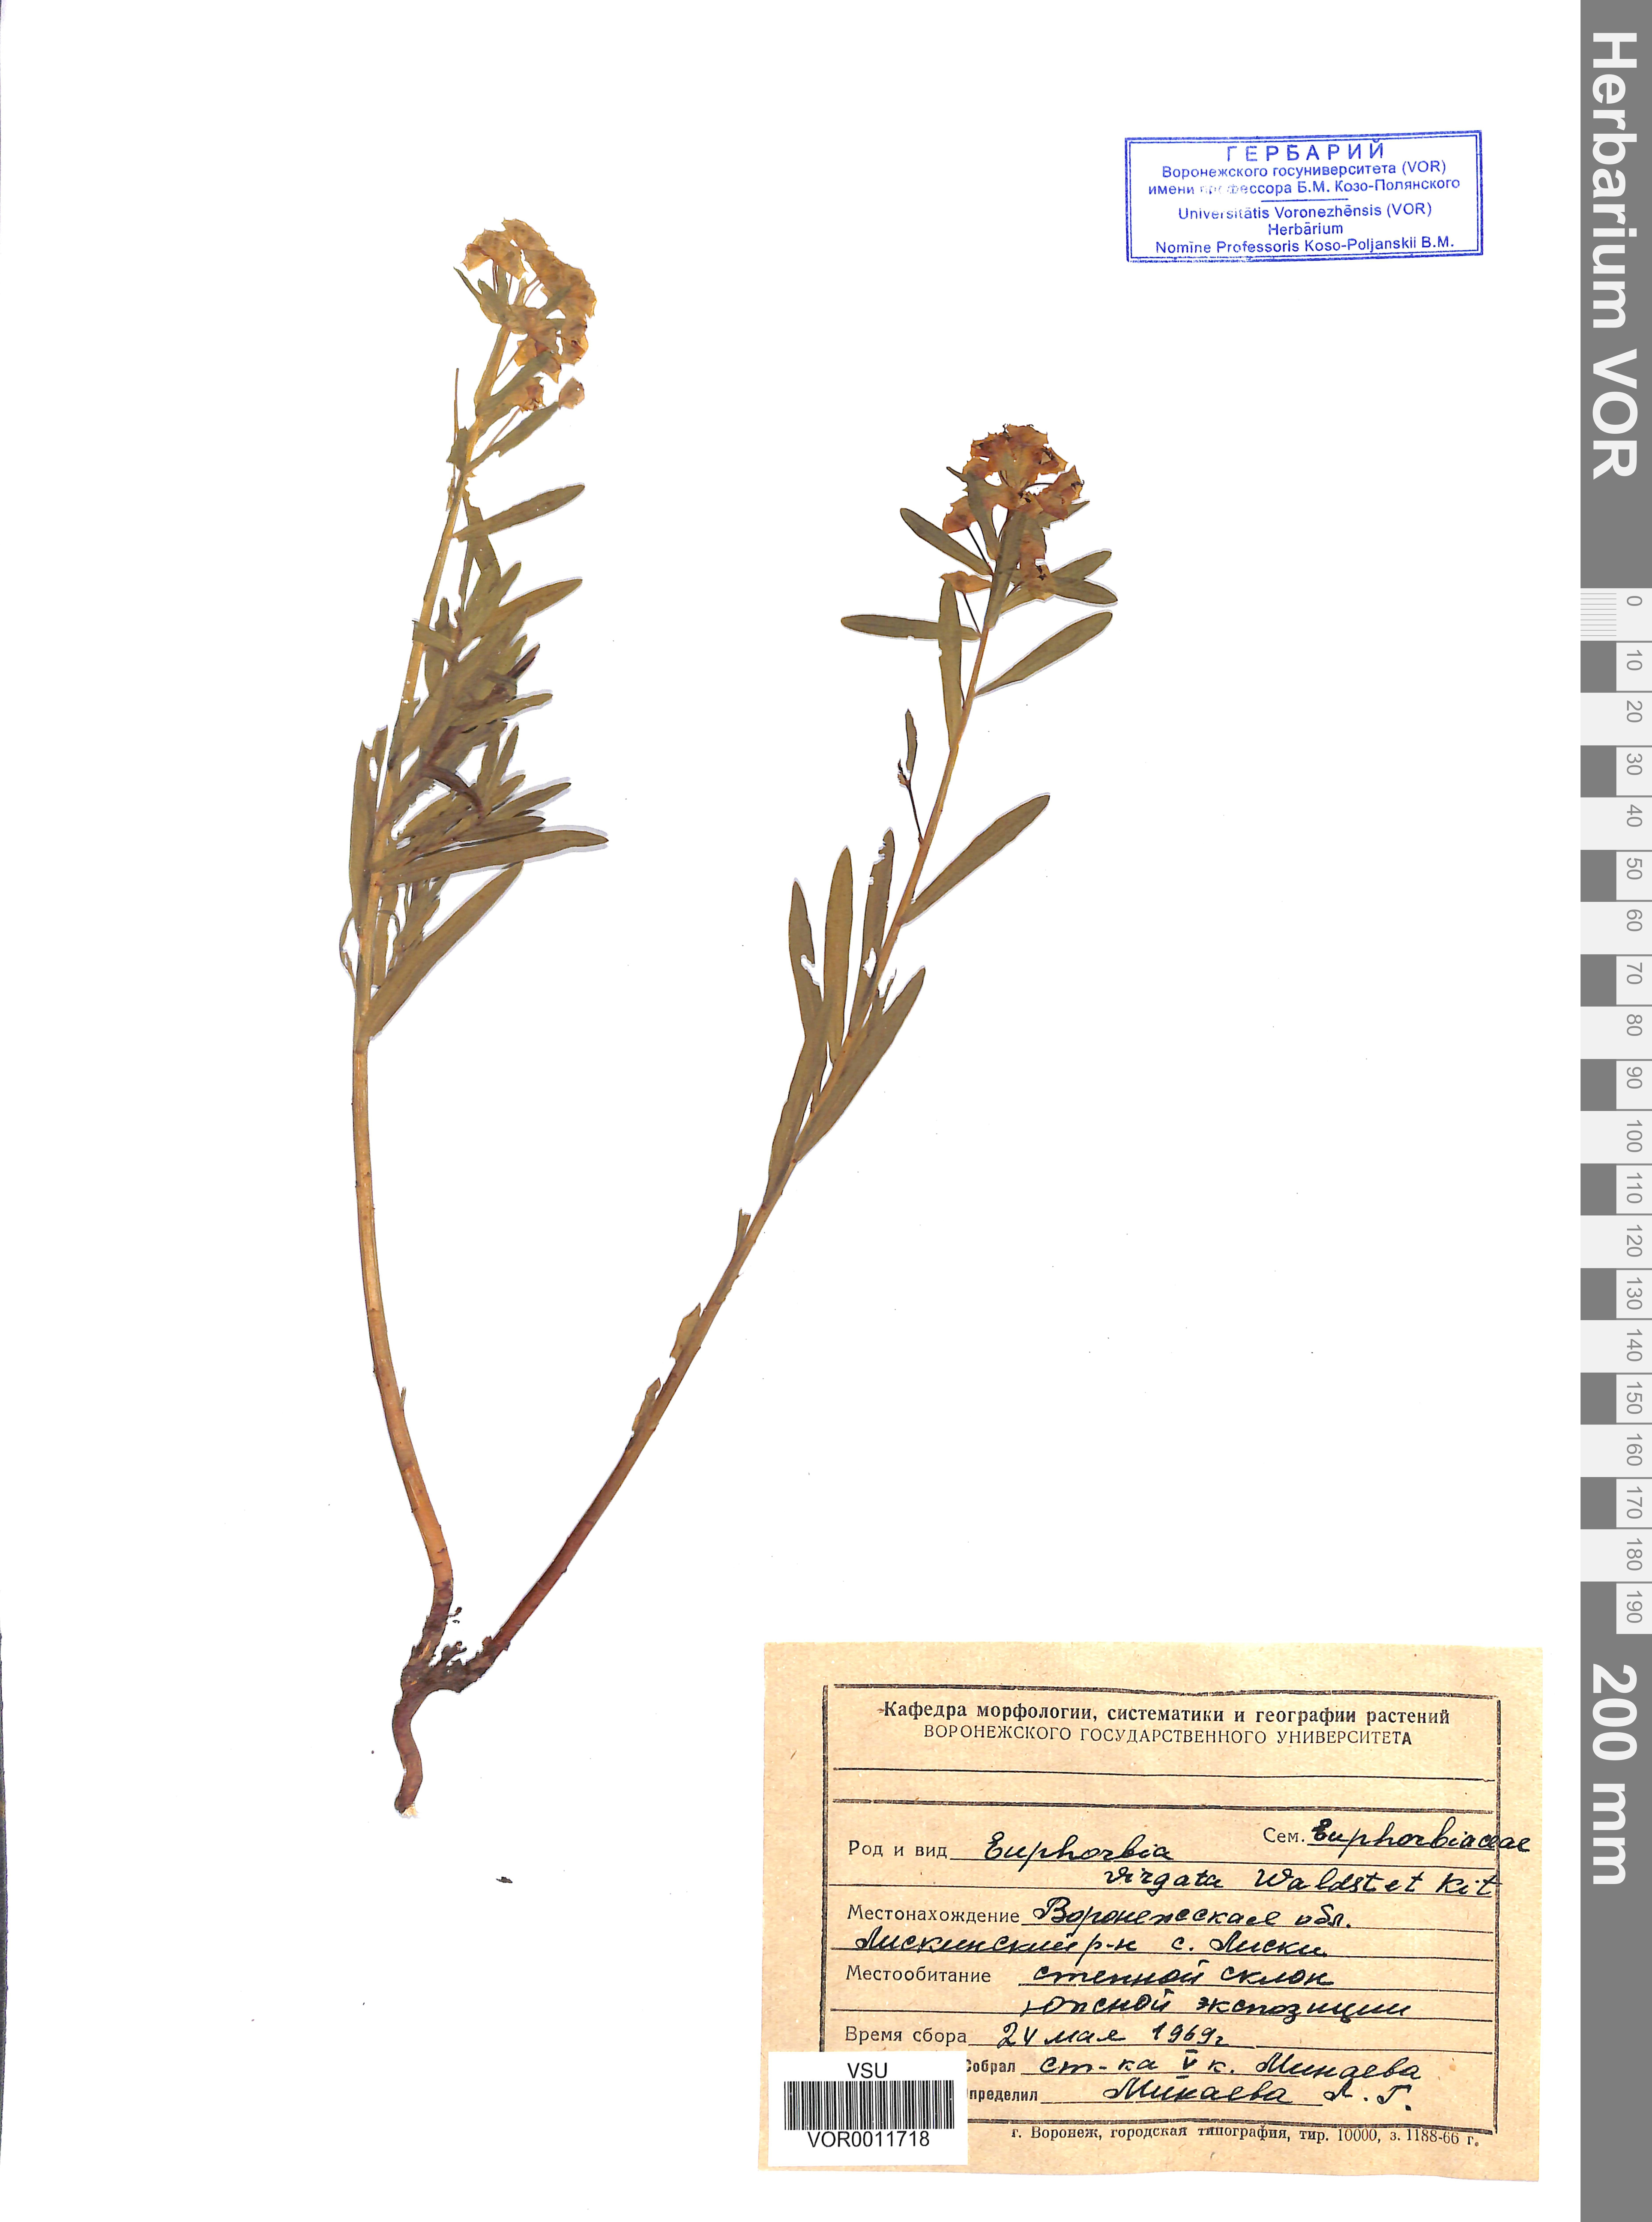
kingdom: Plantae
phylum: Tracheophyta
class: Magnoliopsida
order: Malpighiales
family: Euphorbiaceae
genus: Euphorbia
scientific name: Euphorbia virgata
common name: Leafy spurge
